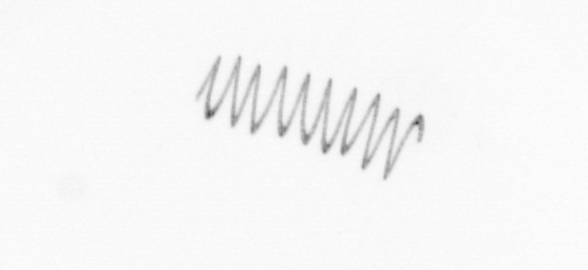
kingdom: Chromista
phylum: Ochrophyta
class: Bacillariophyceae
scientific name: Bacillariophyceae
